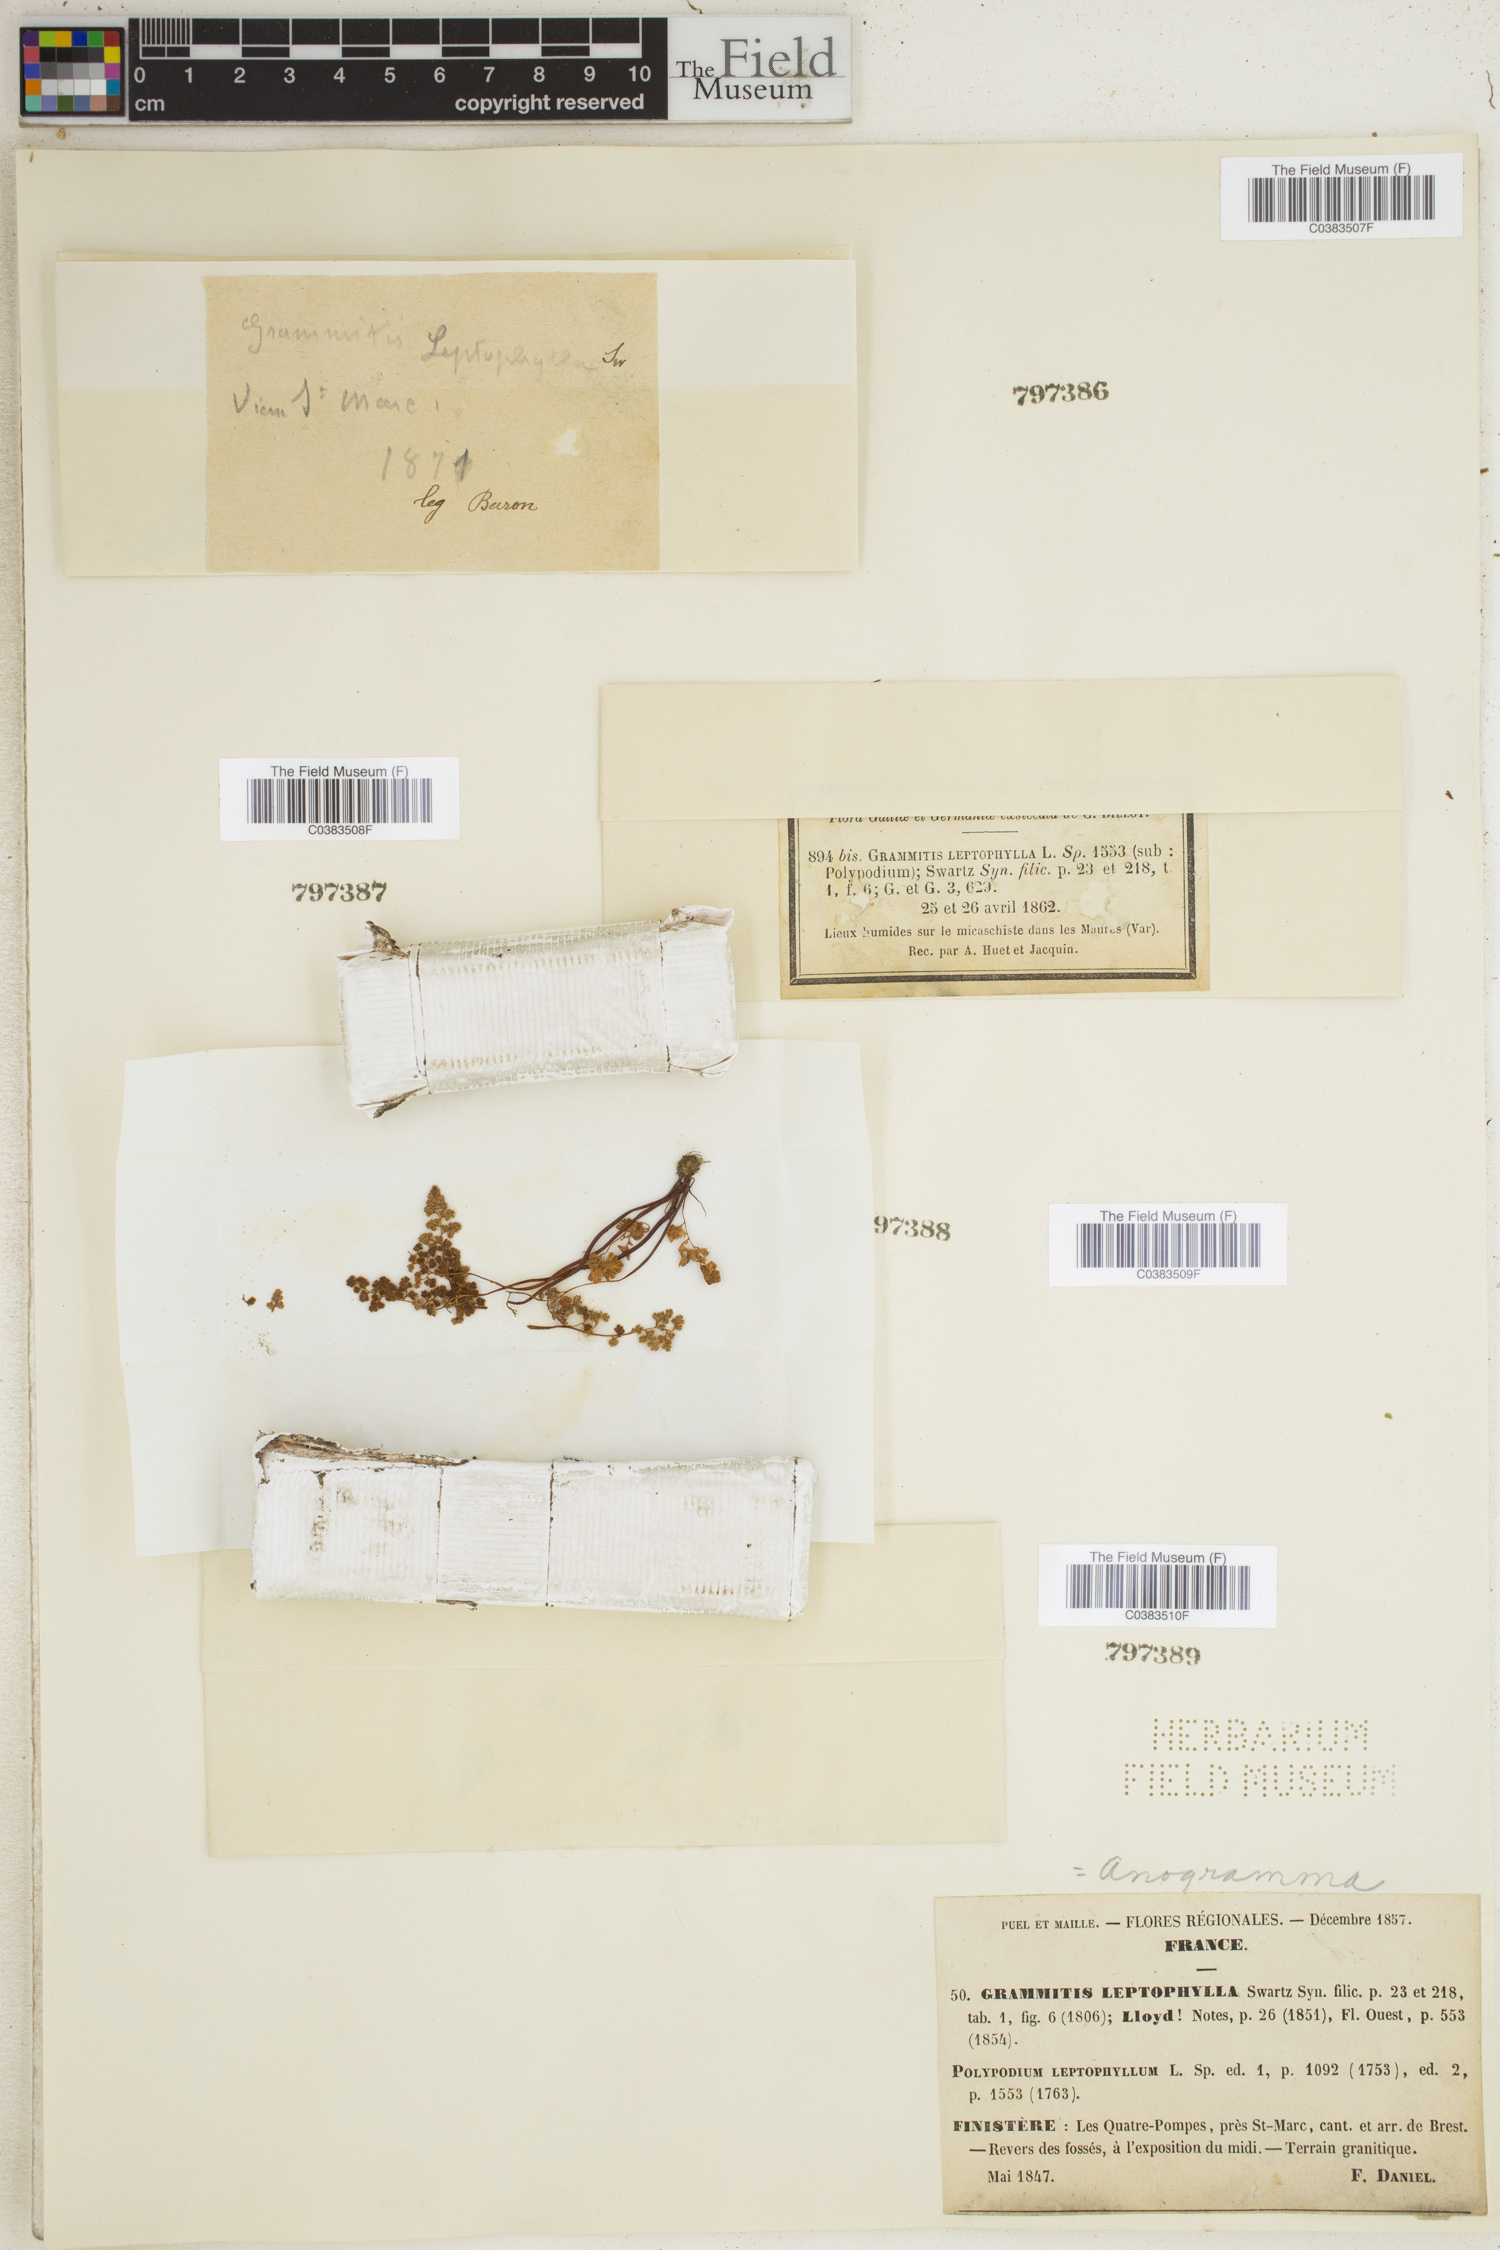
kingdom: Plantae
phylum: Tracheophyta
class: Polypodiopsida
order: Polypodiales
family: Pteridaceae
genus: Anogramma
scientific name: Anogramma leptophylla
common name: Jersey fern
